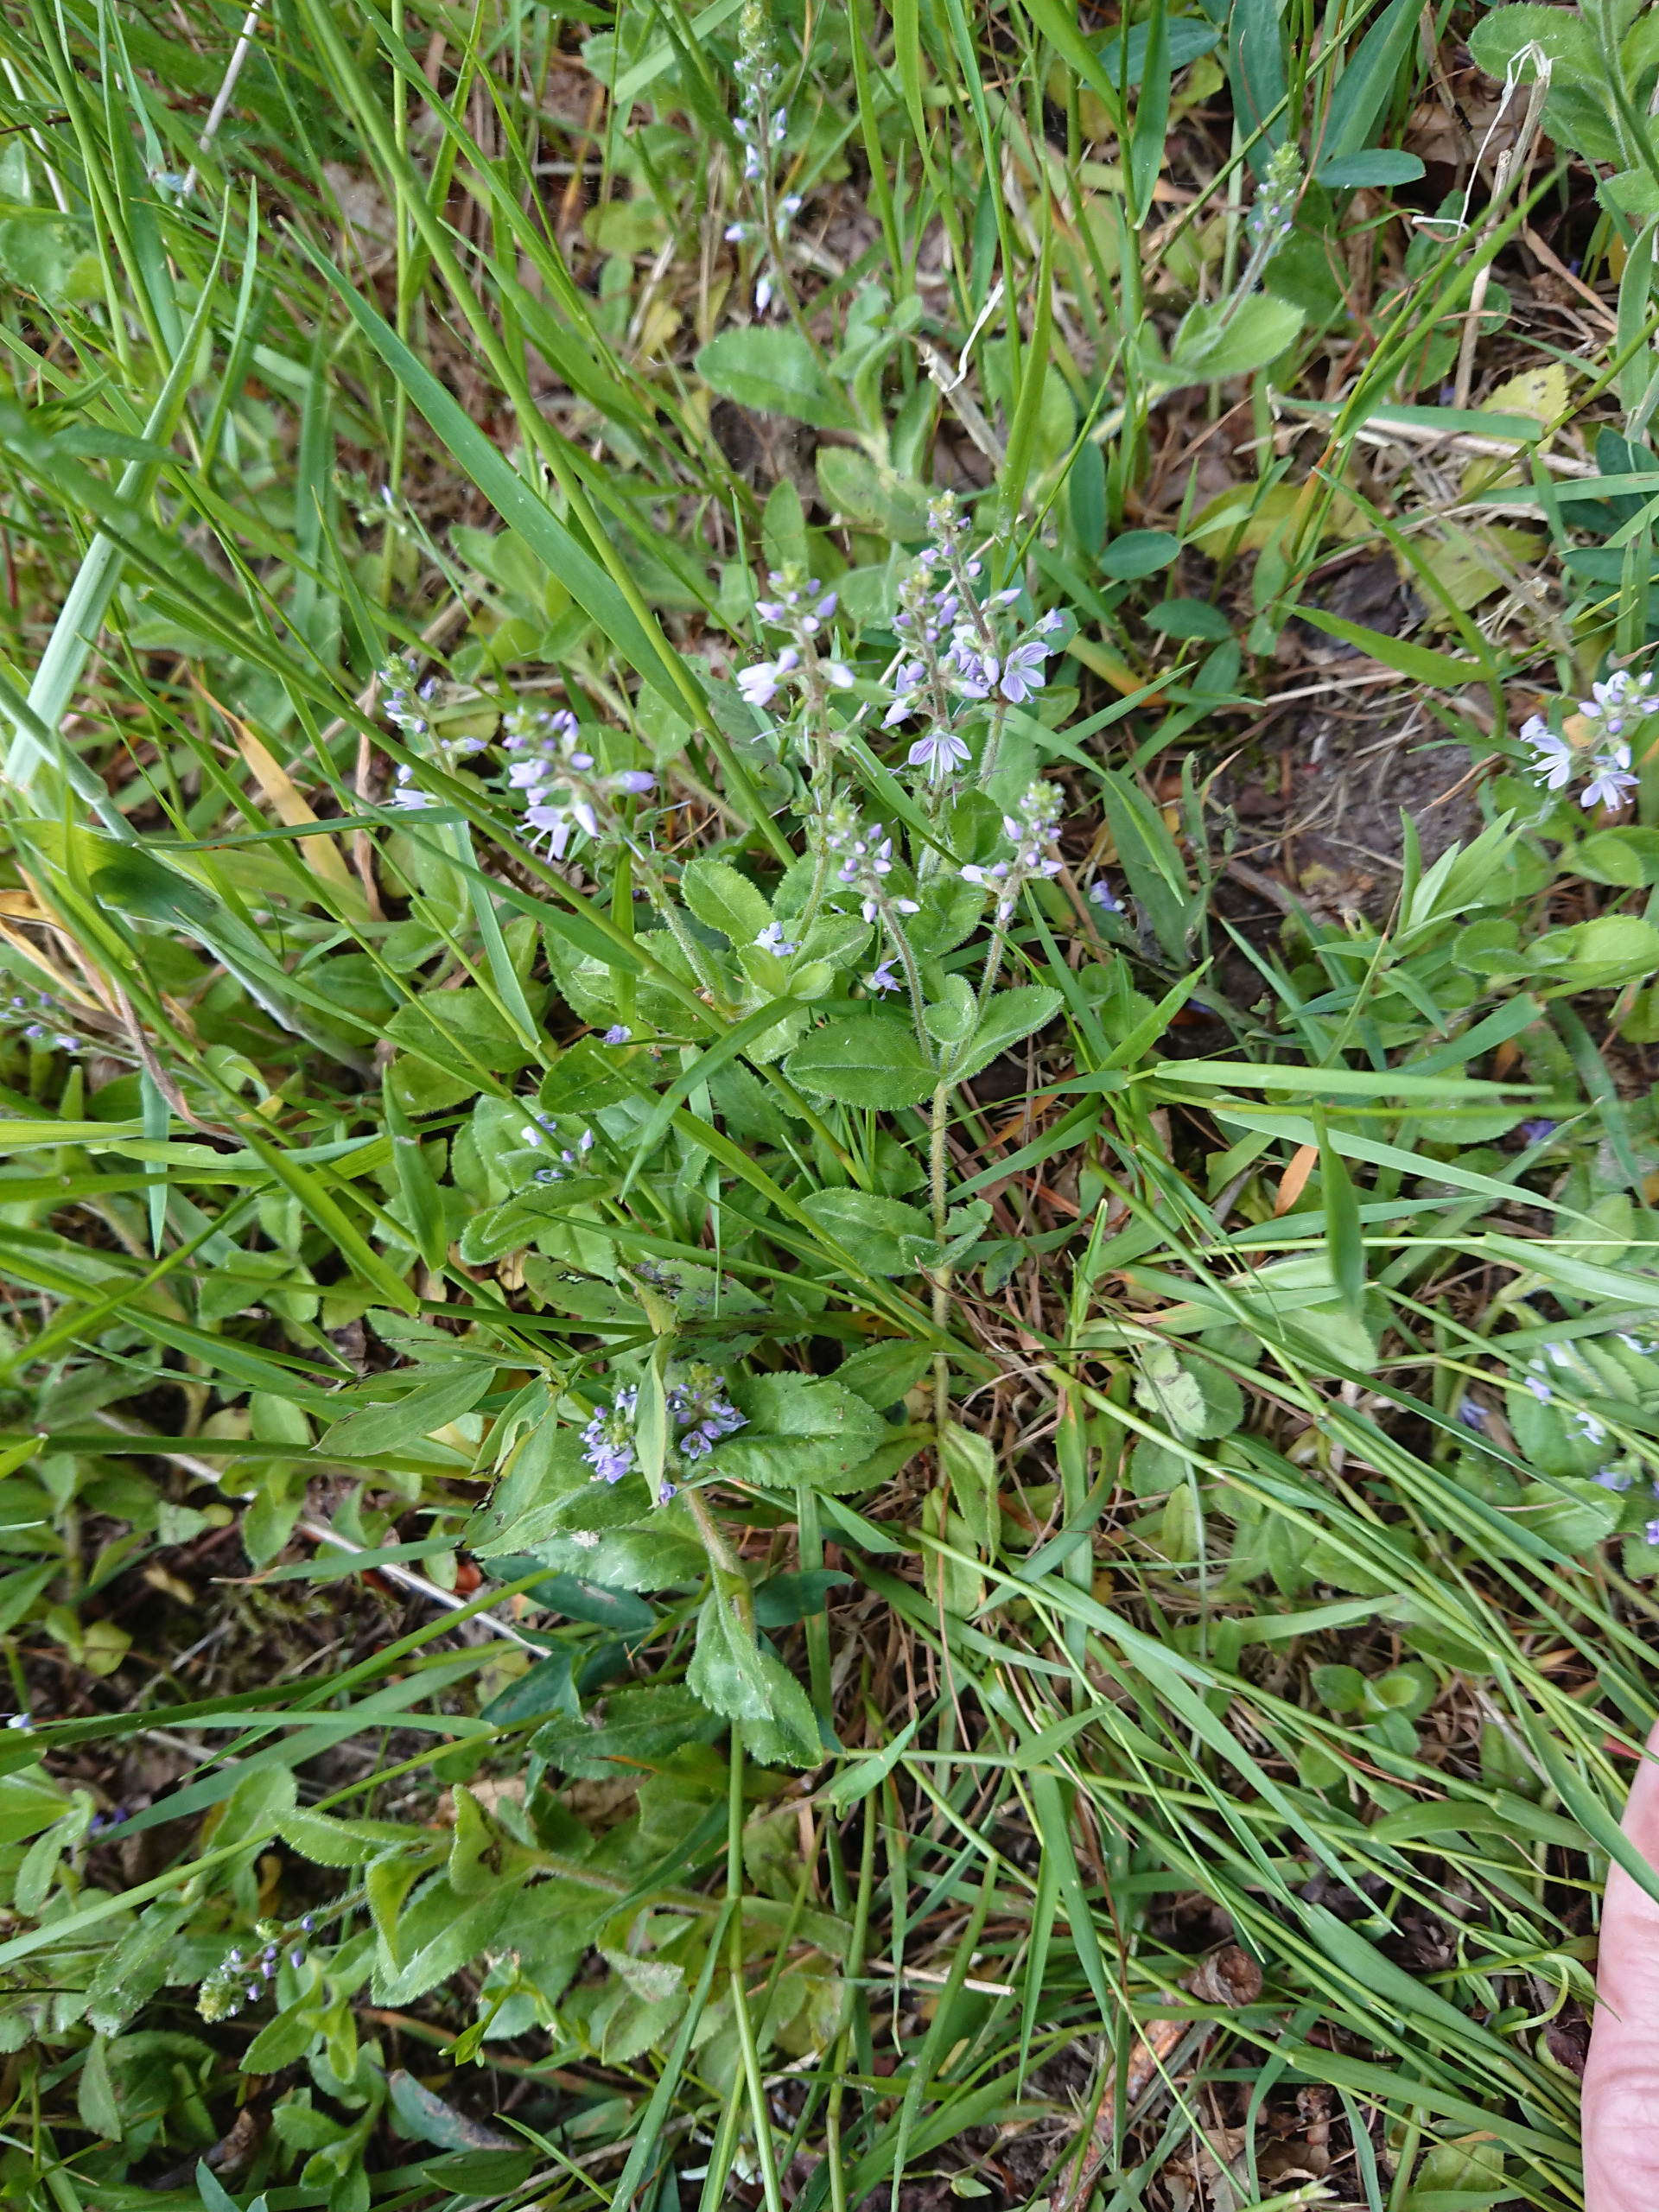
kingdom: Plantae
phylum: Tracheophyta
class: Magnoliopsida
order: Lamiales
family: Plantaginaceae
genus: Veronica
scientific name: Veronica officinalis
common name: Læge-ærenpris
